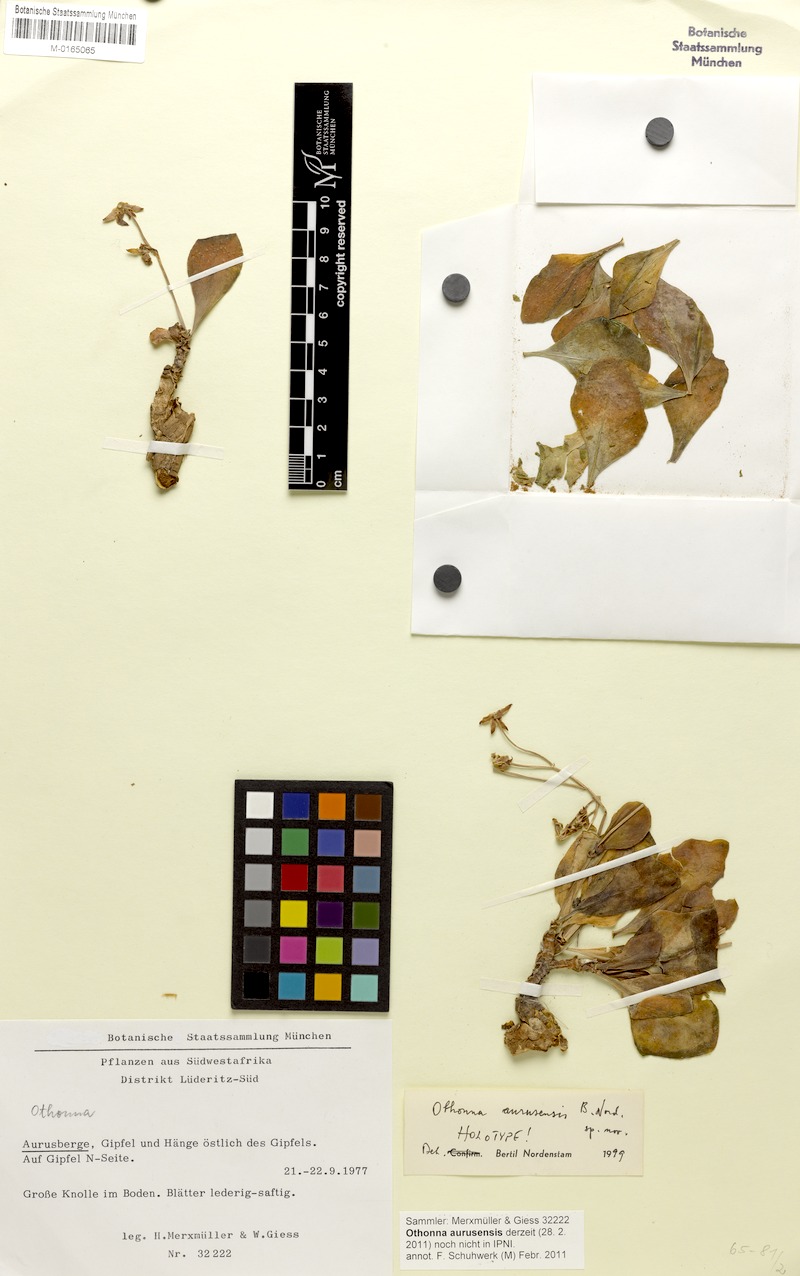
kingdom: Plantae
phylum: Tracheophyta
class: Magnoliopsida
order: Asterales
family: Asteraceae
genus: Othonna
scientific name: Othonna
